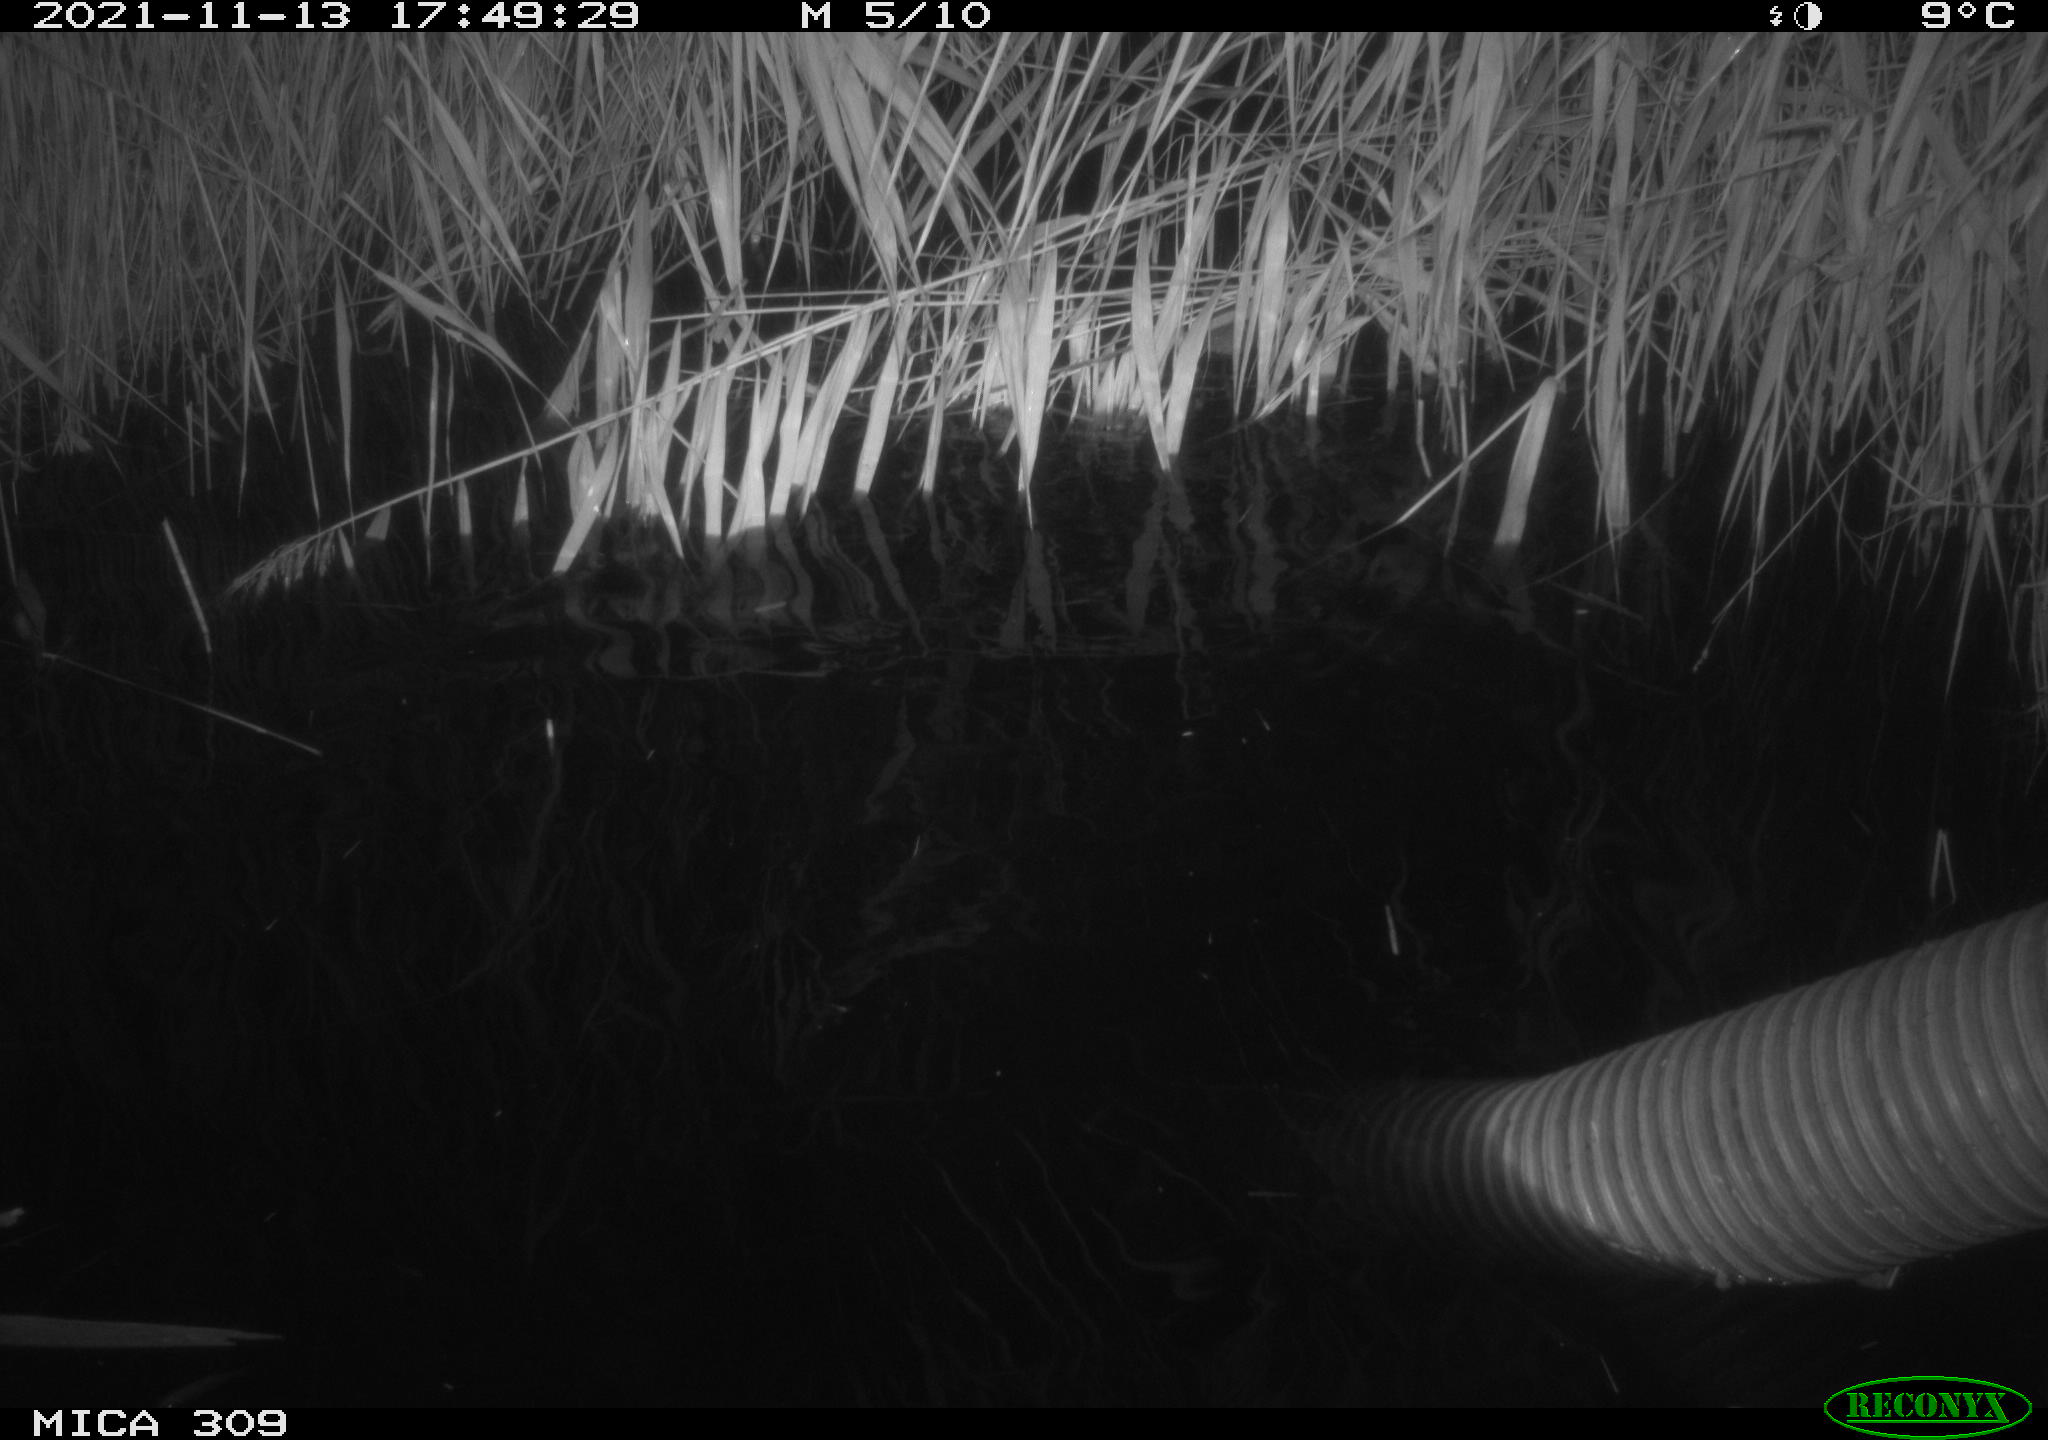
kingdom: Animalia
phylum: Chordata
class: Mammalia
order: Rodentia
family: Muridae
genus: Rattus
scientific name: Rattus norvegicus
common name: Brown rat
